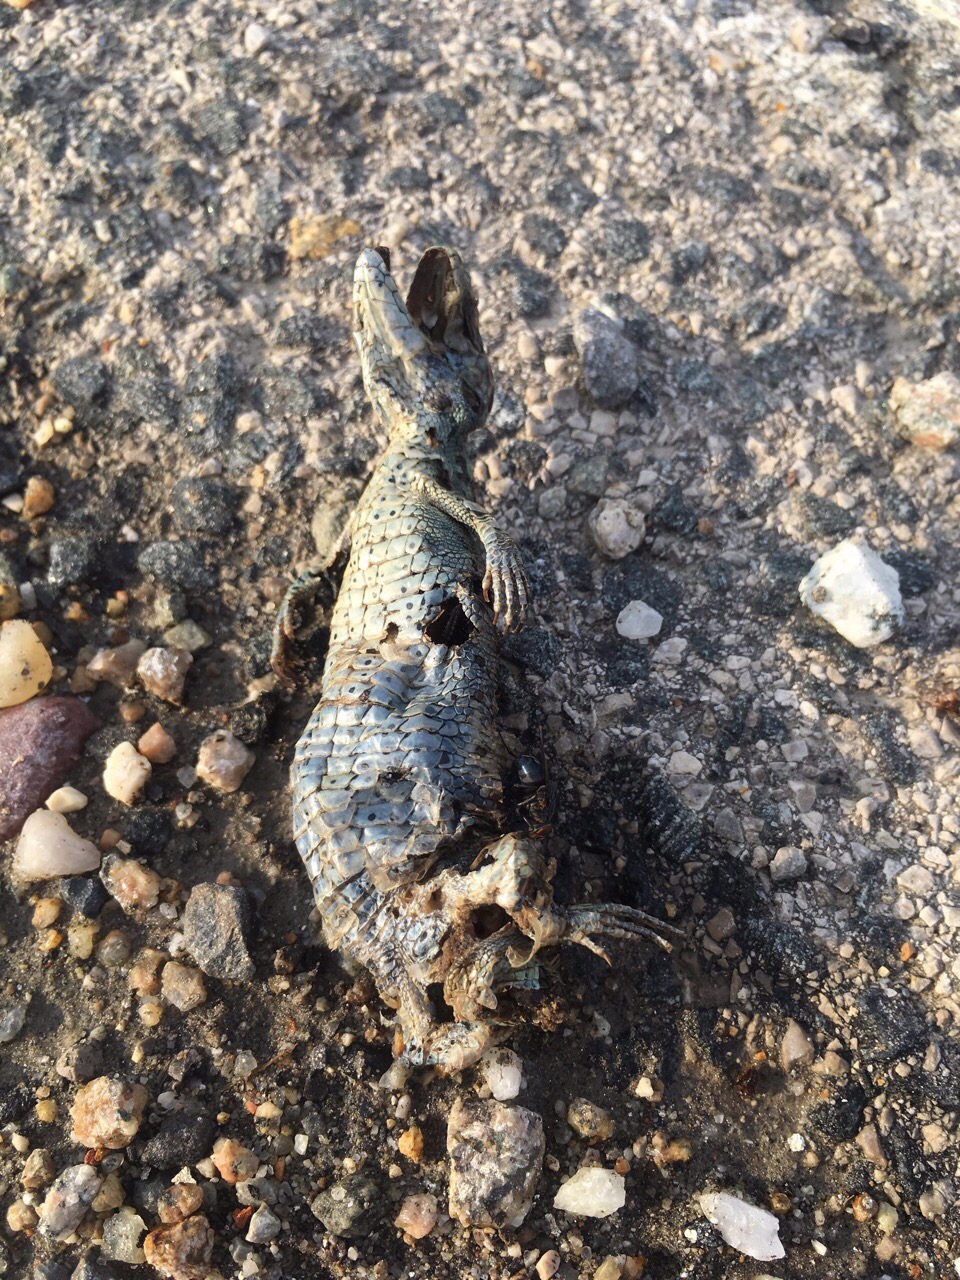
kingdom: Animalia
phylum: Chordata
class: Squamata
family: Lacertidae
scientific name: Lacertidae
